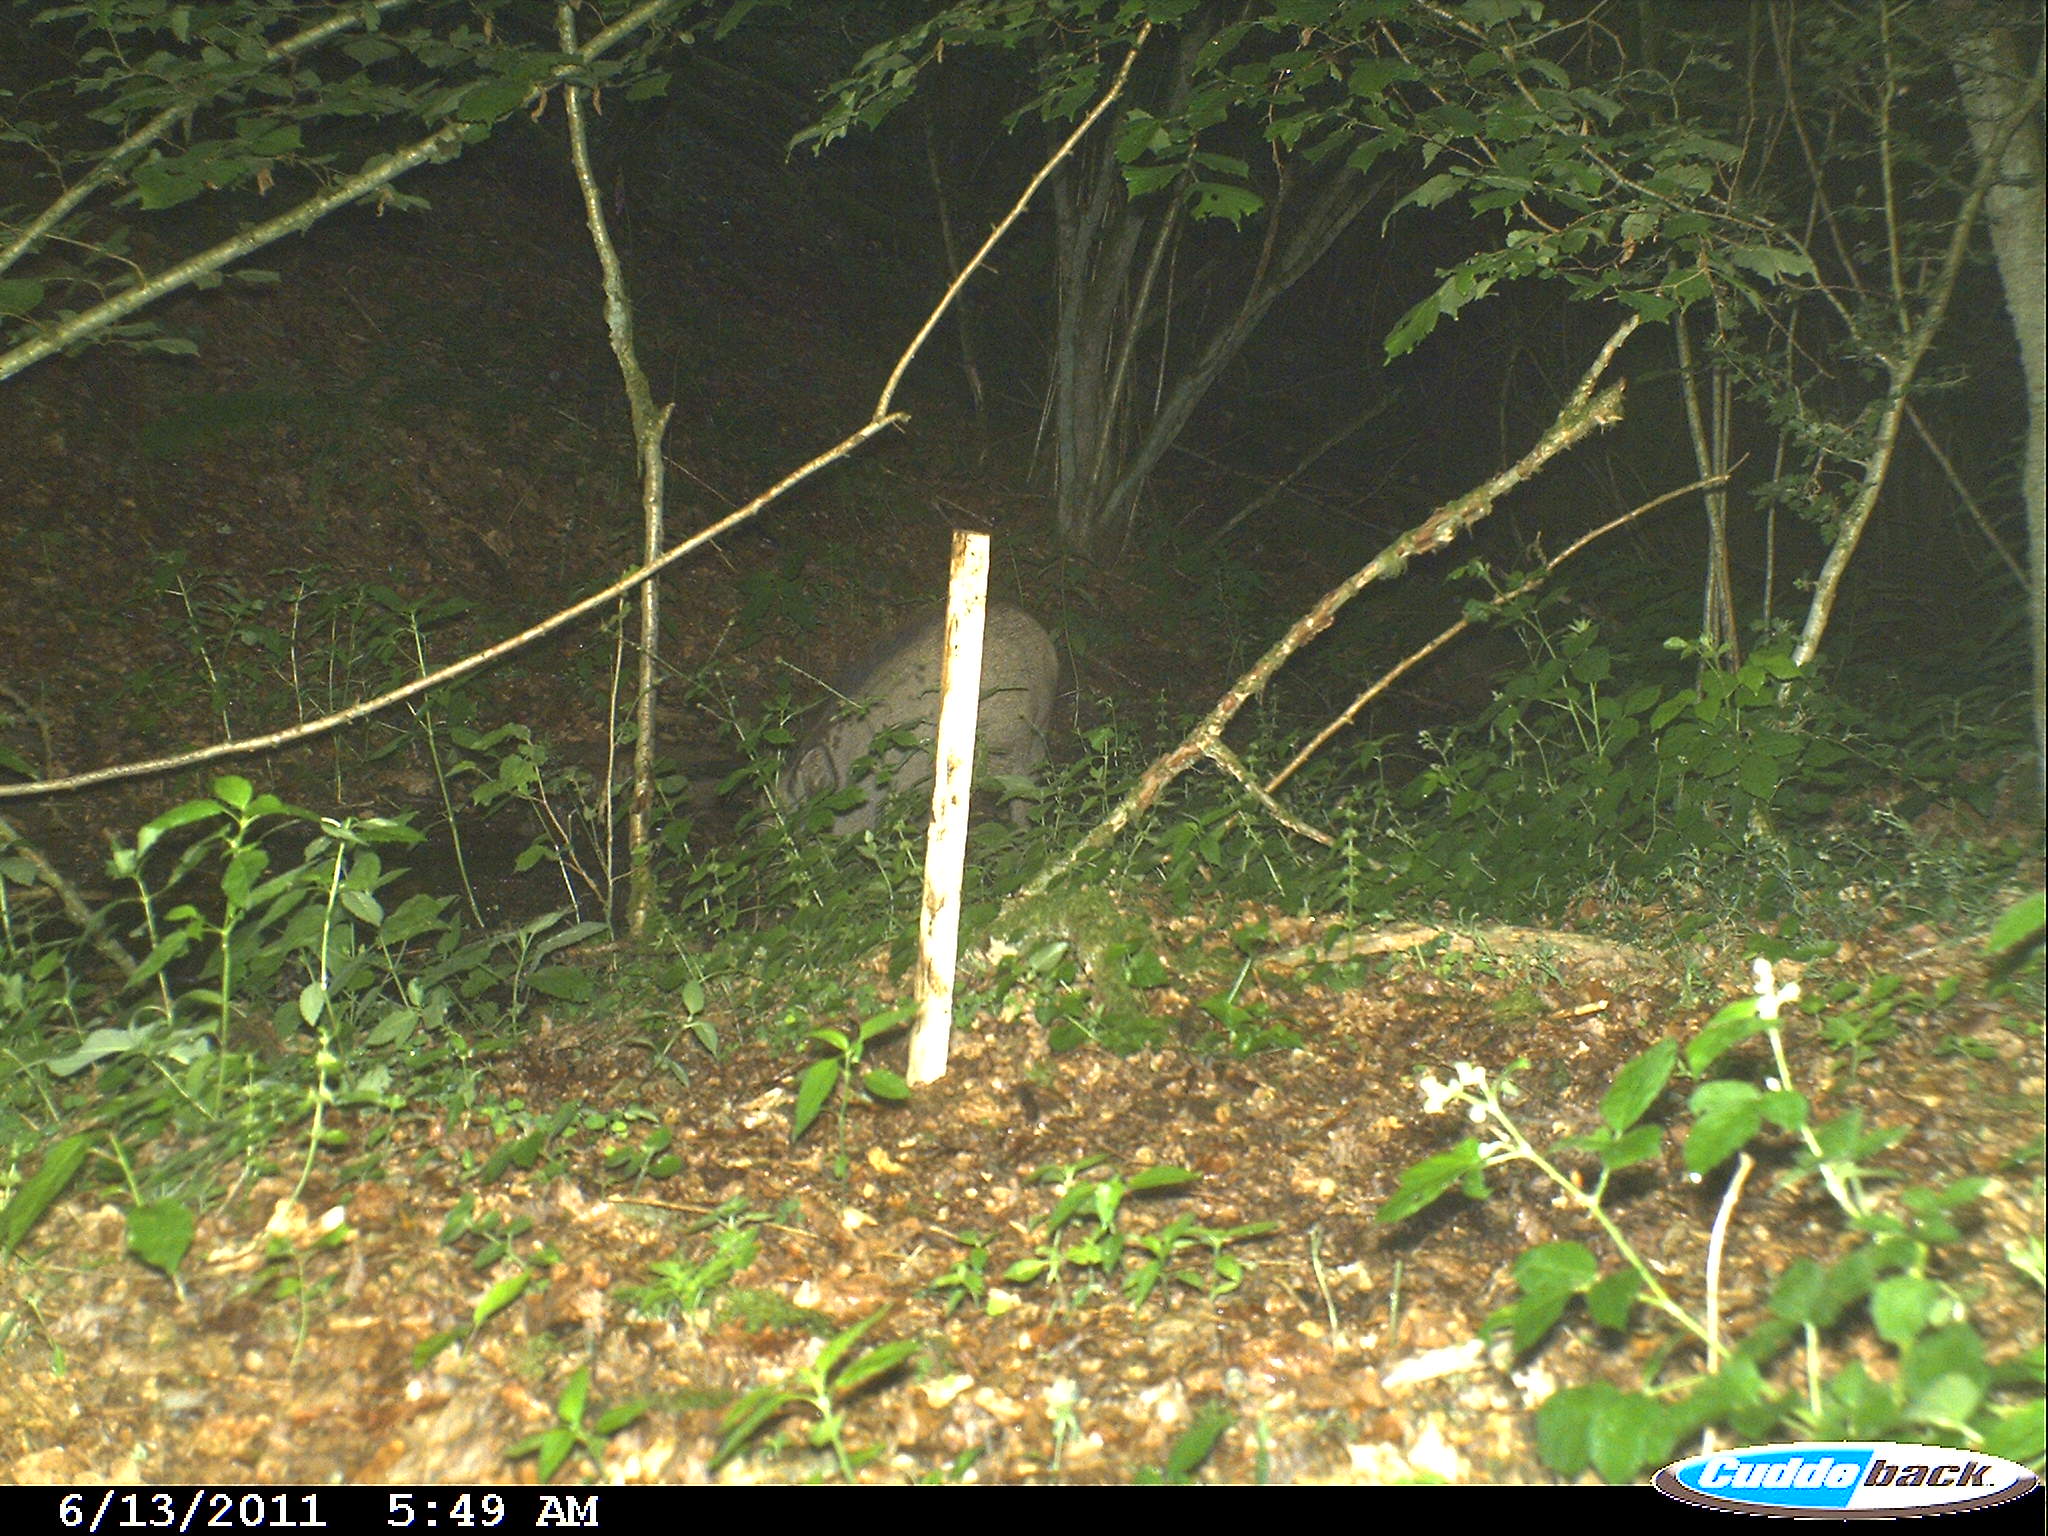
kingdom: Animalia
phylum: Chordata
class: Mammalia
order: Artiodactyla
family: Suidae
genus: Sus
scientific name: Sus scrofa
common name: Wild boar
